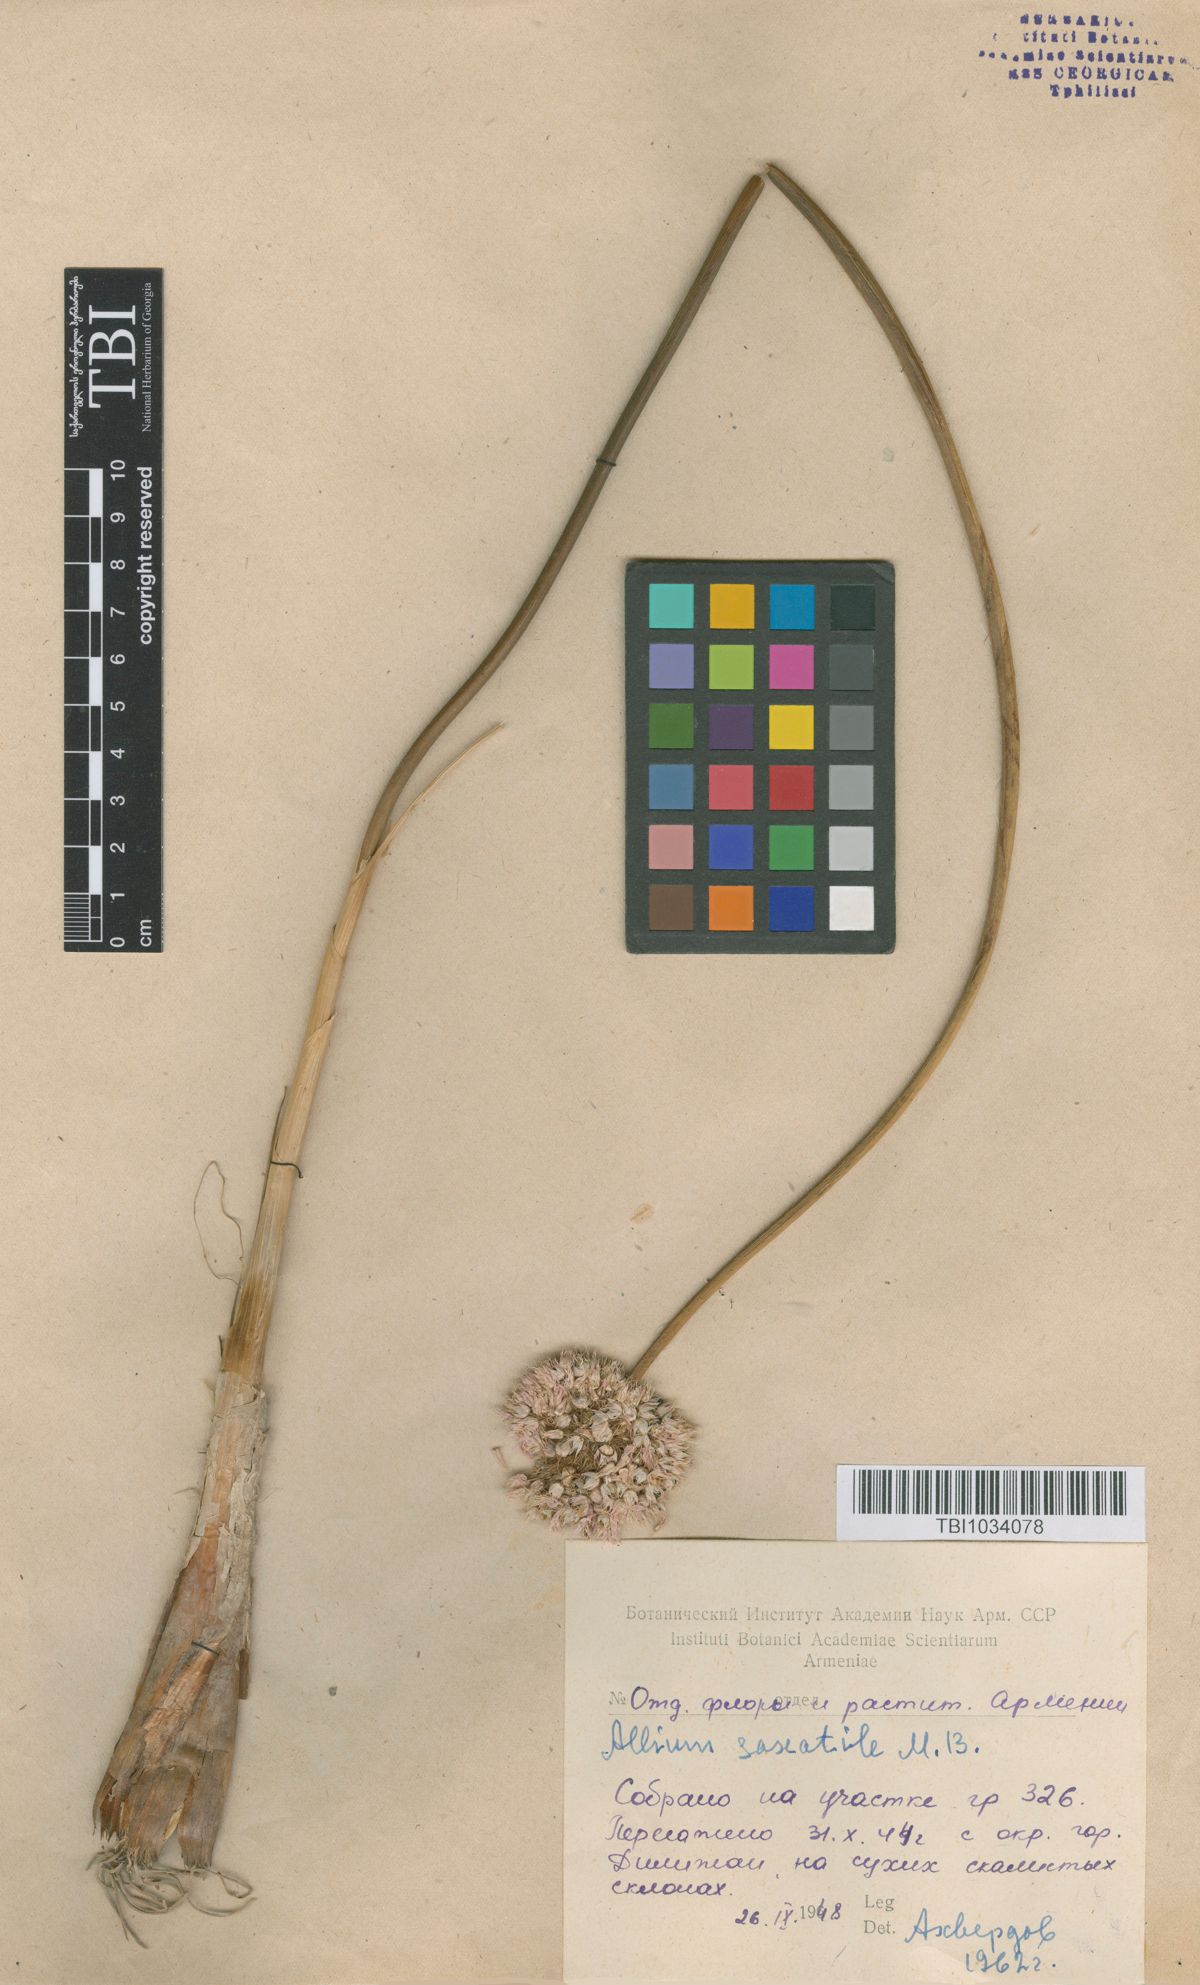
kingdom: Plantae
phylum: Tracheophyta
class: Liliopsida
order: Asparagales
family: Amaryllidaceae
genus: Allium
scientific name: Allium saxatile
